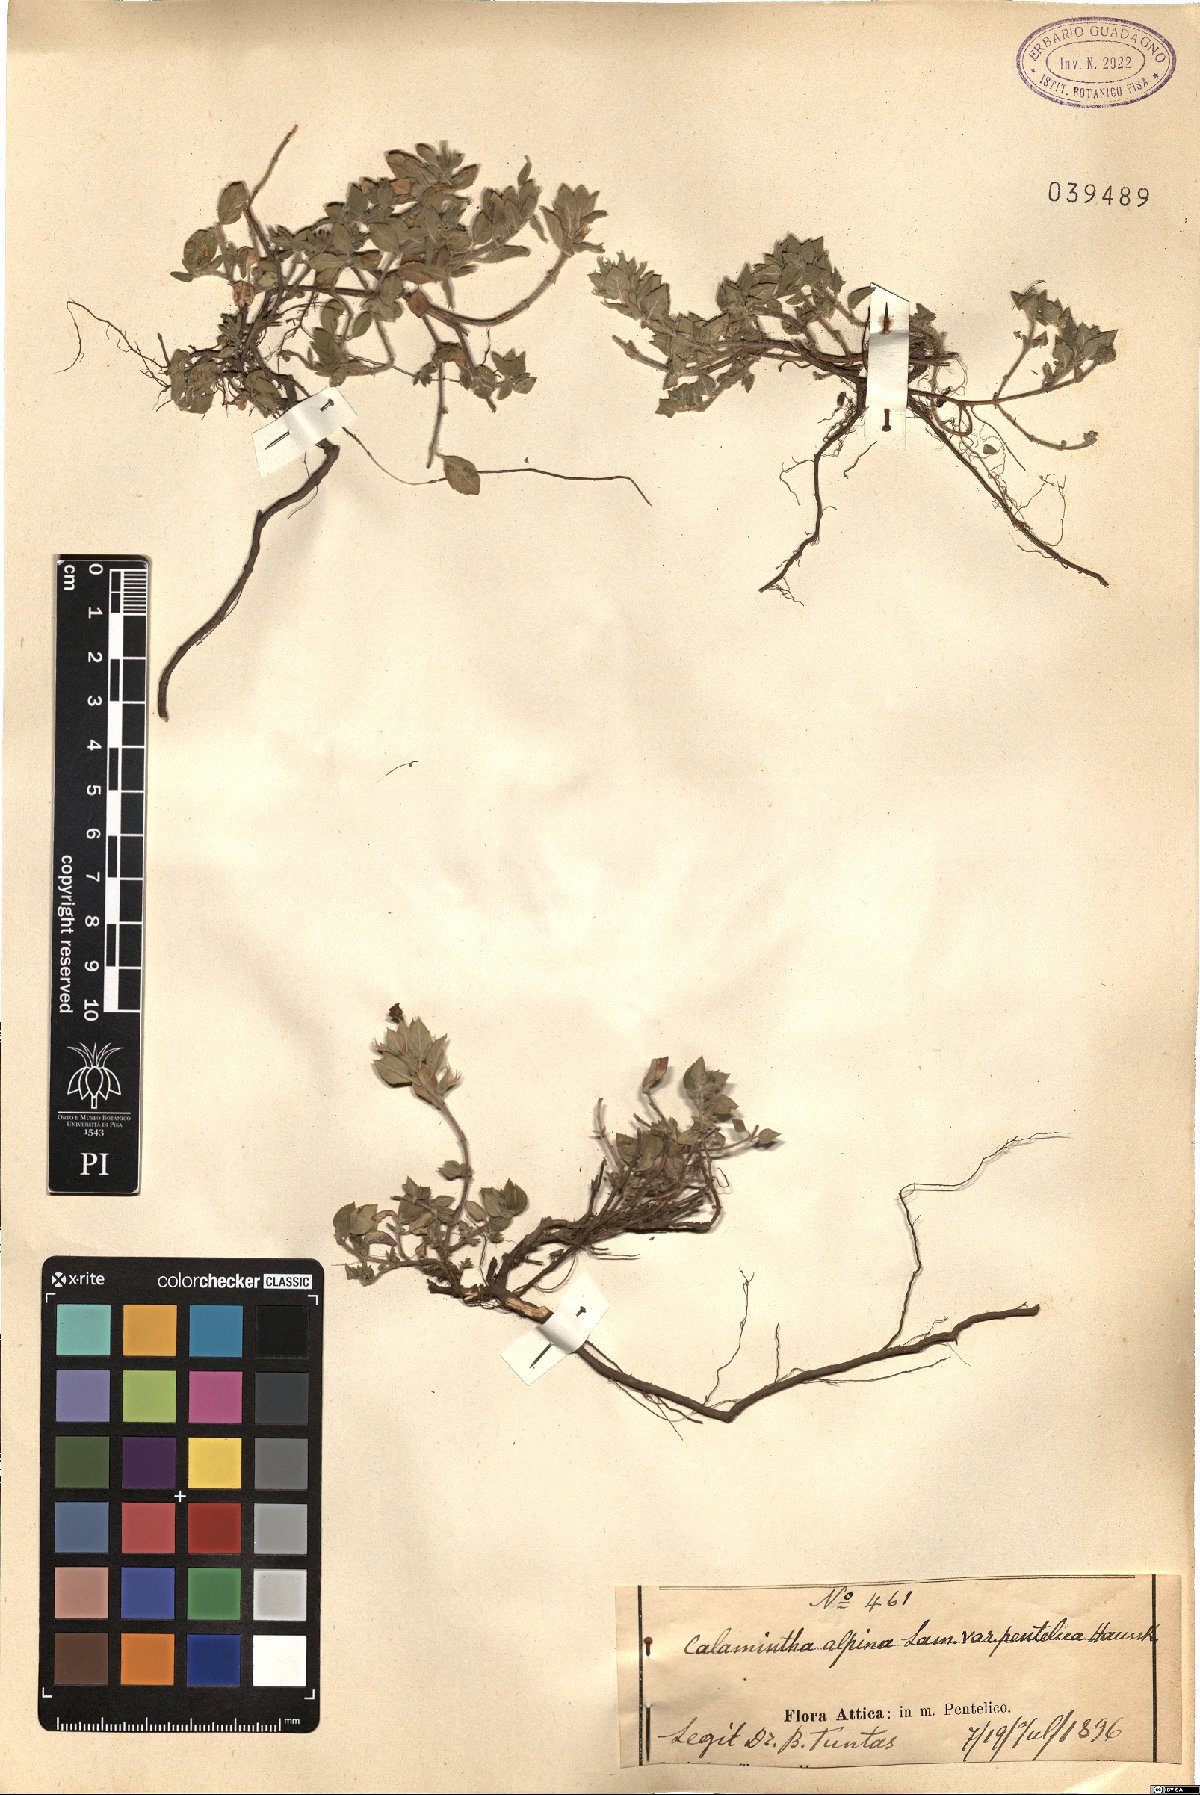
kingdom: Plantae
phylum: Tracheophyta
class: Magnoliopsida
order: Lamiales
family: Lamiaceae
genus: Clinopodium
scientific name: Clinopodium alpinum
